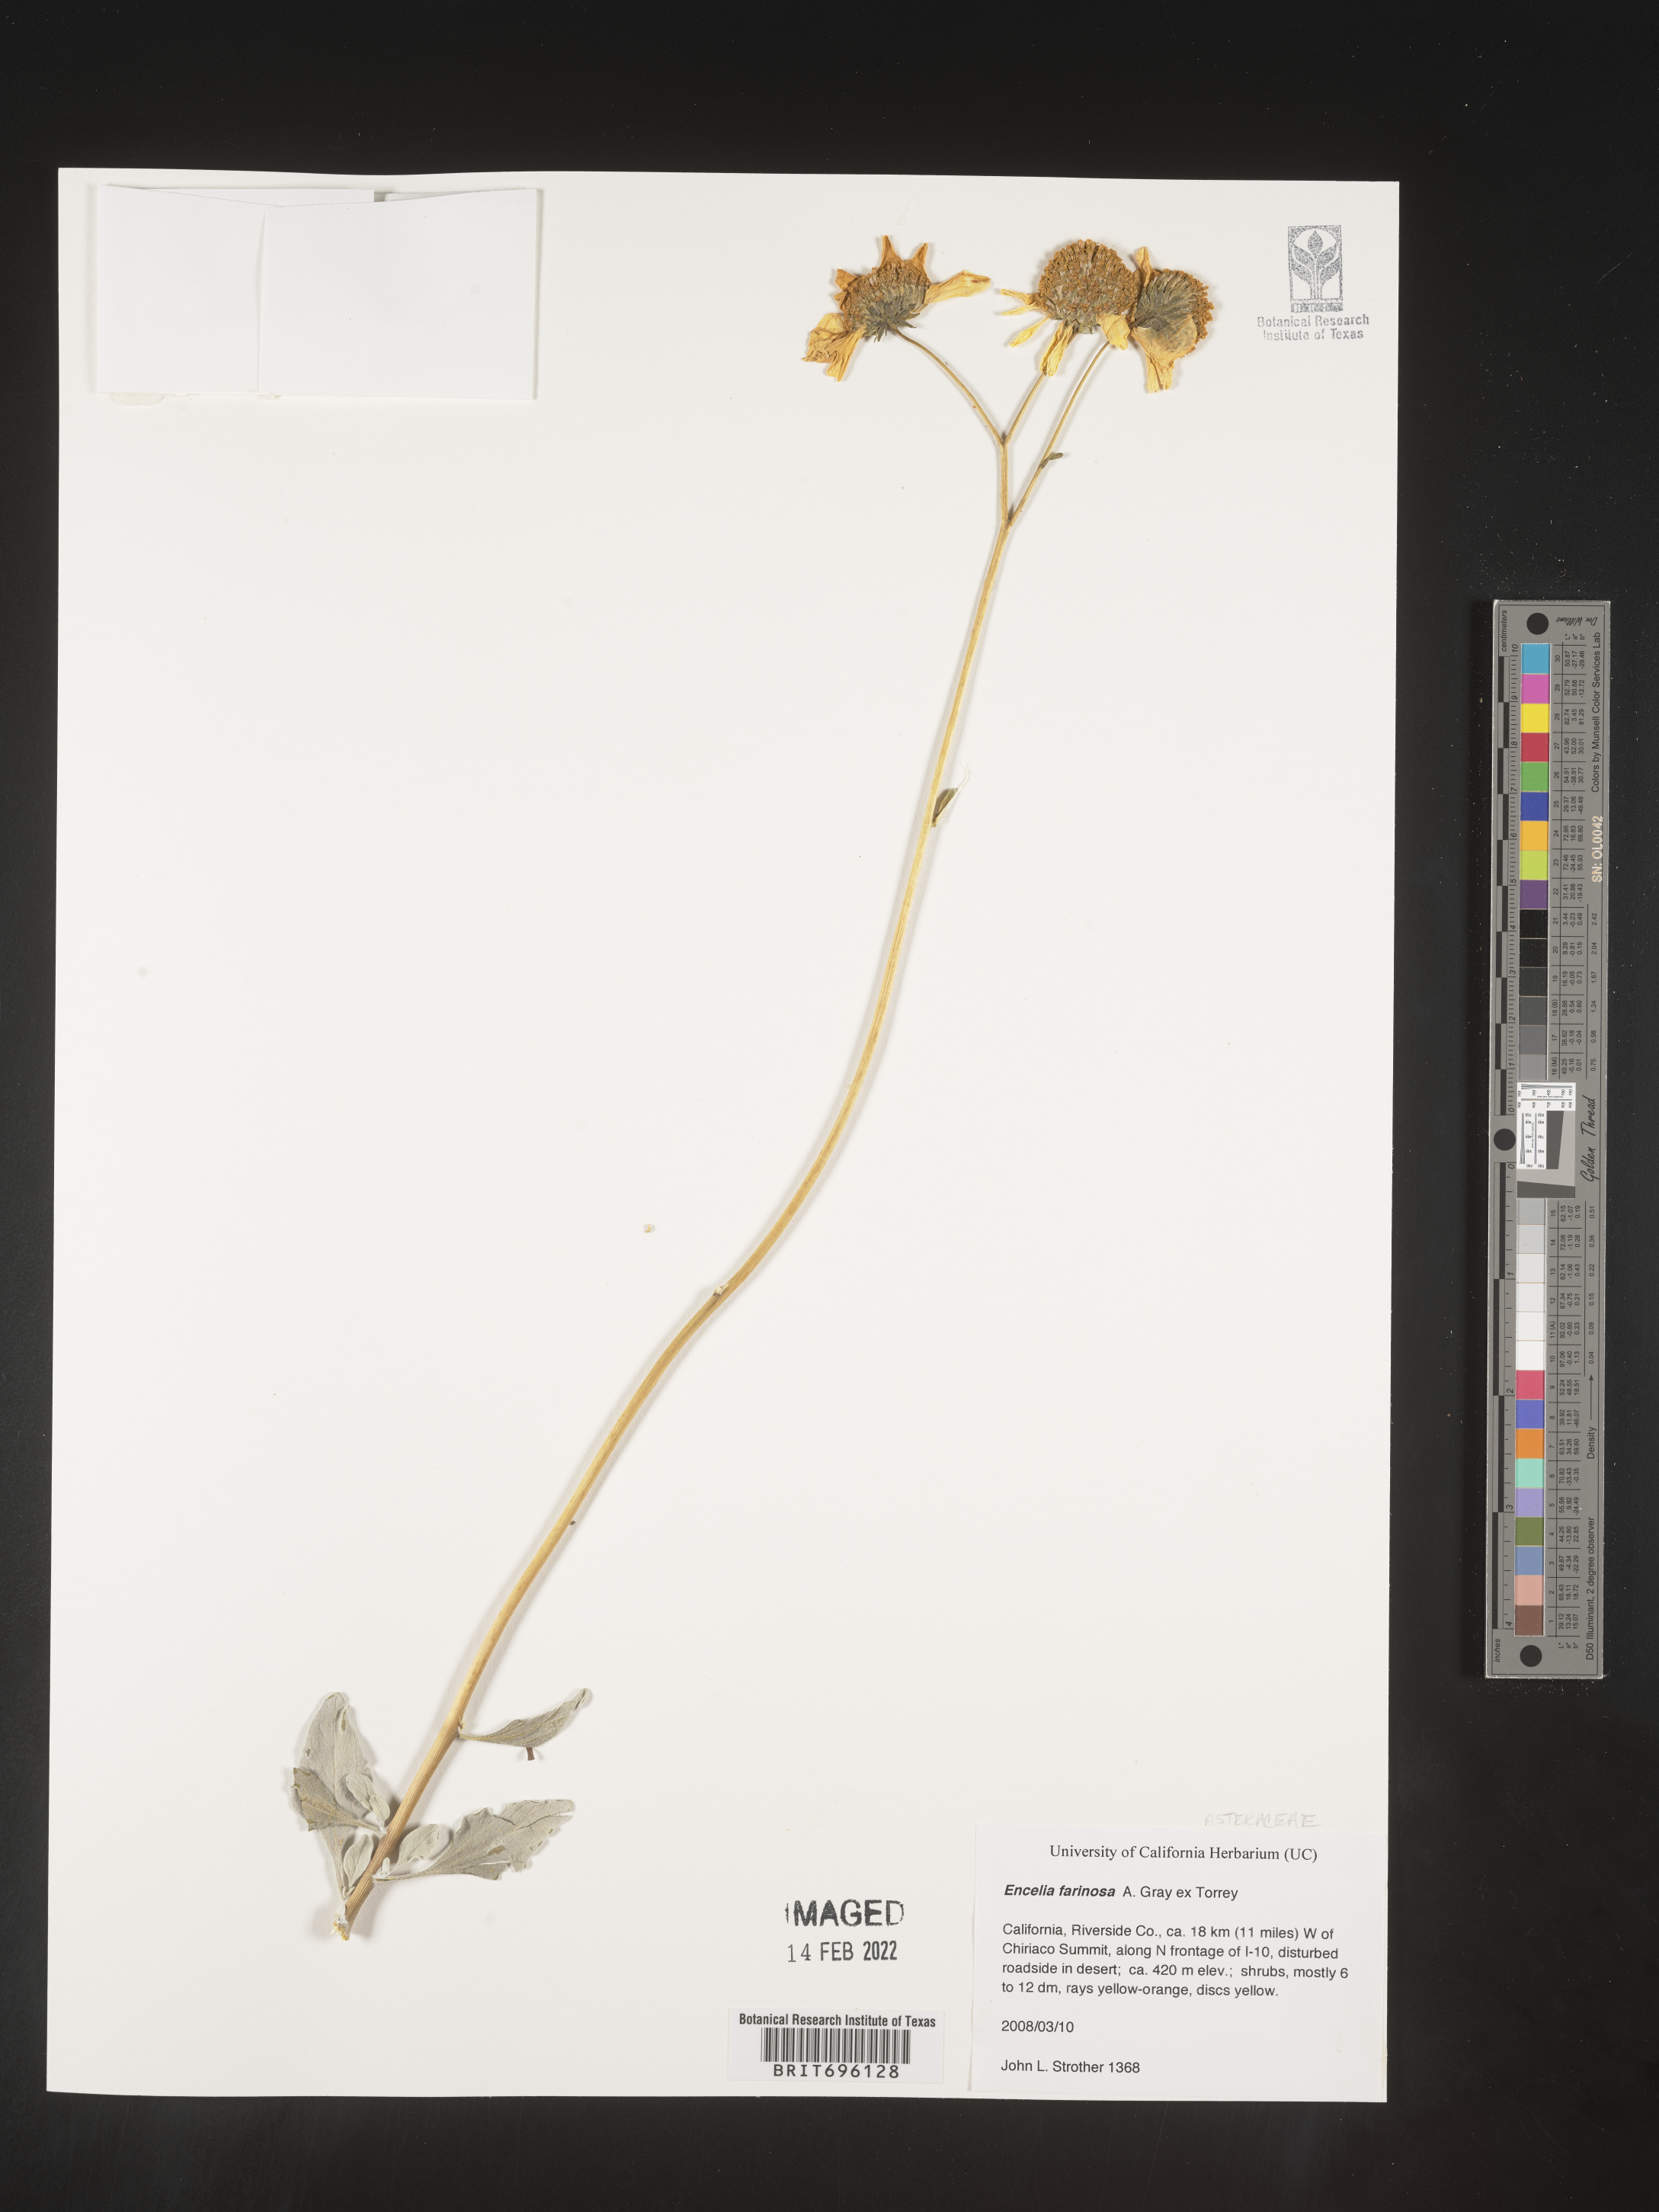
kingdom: Plantae
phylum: Tracheophyta
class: Magnoliopsida
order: Asterales
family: Asteraceae
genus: Encelia
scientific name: Encelia farinosa
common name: Brittlebush
